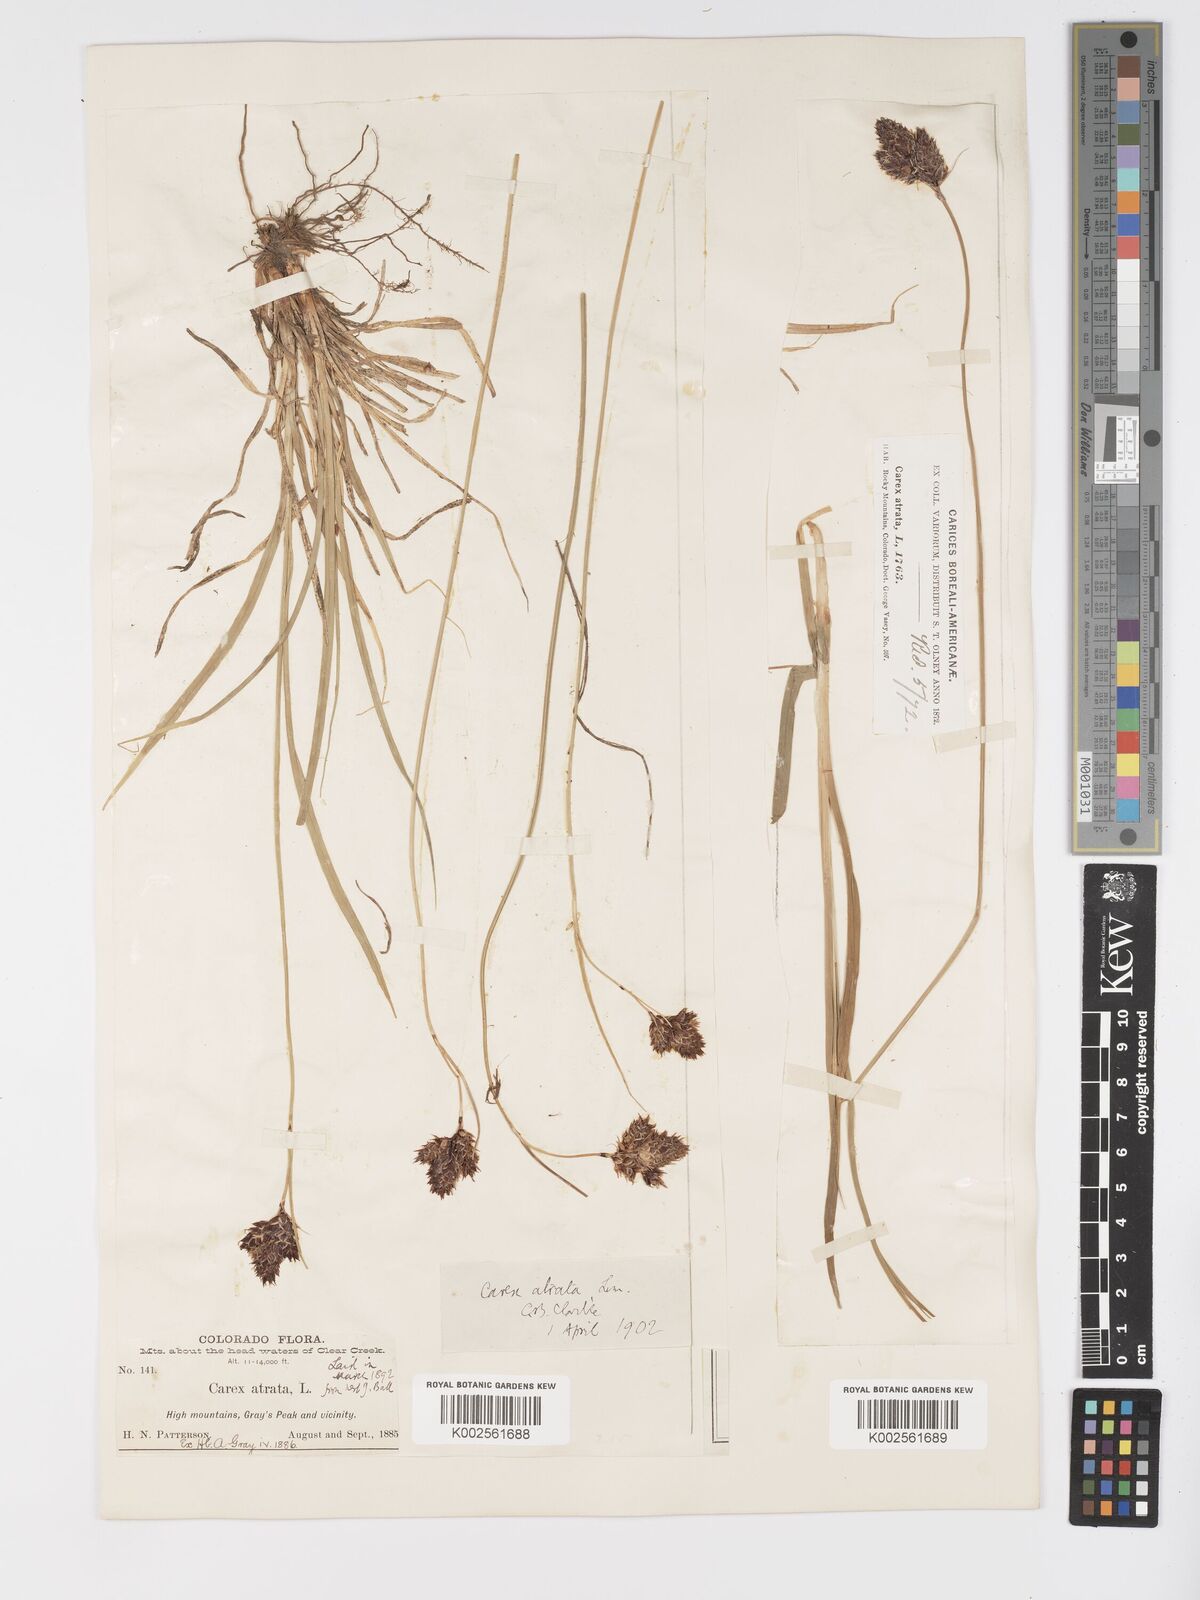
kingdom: Plantae
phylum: Tracheophyta
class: Liliopsida
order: Poales
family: Cyperaceae
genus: Carex
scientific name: Carex chalciolepis
